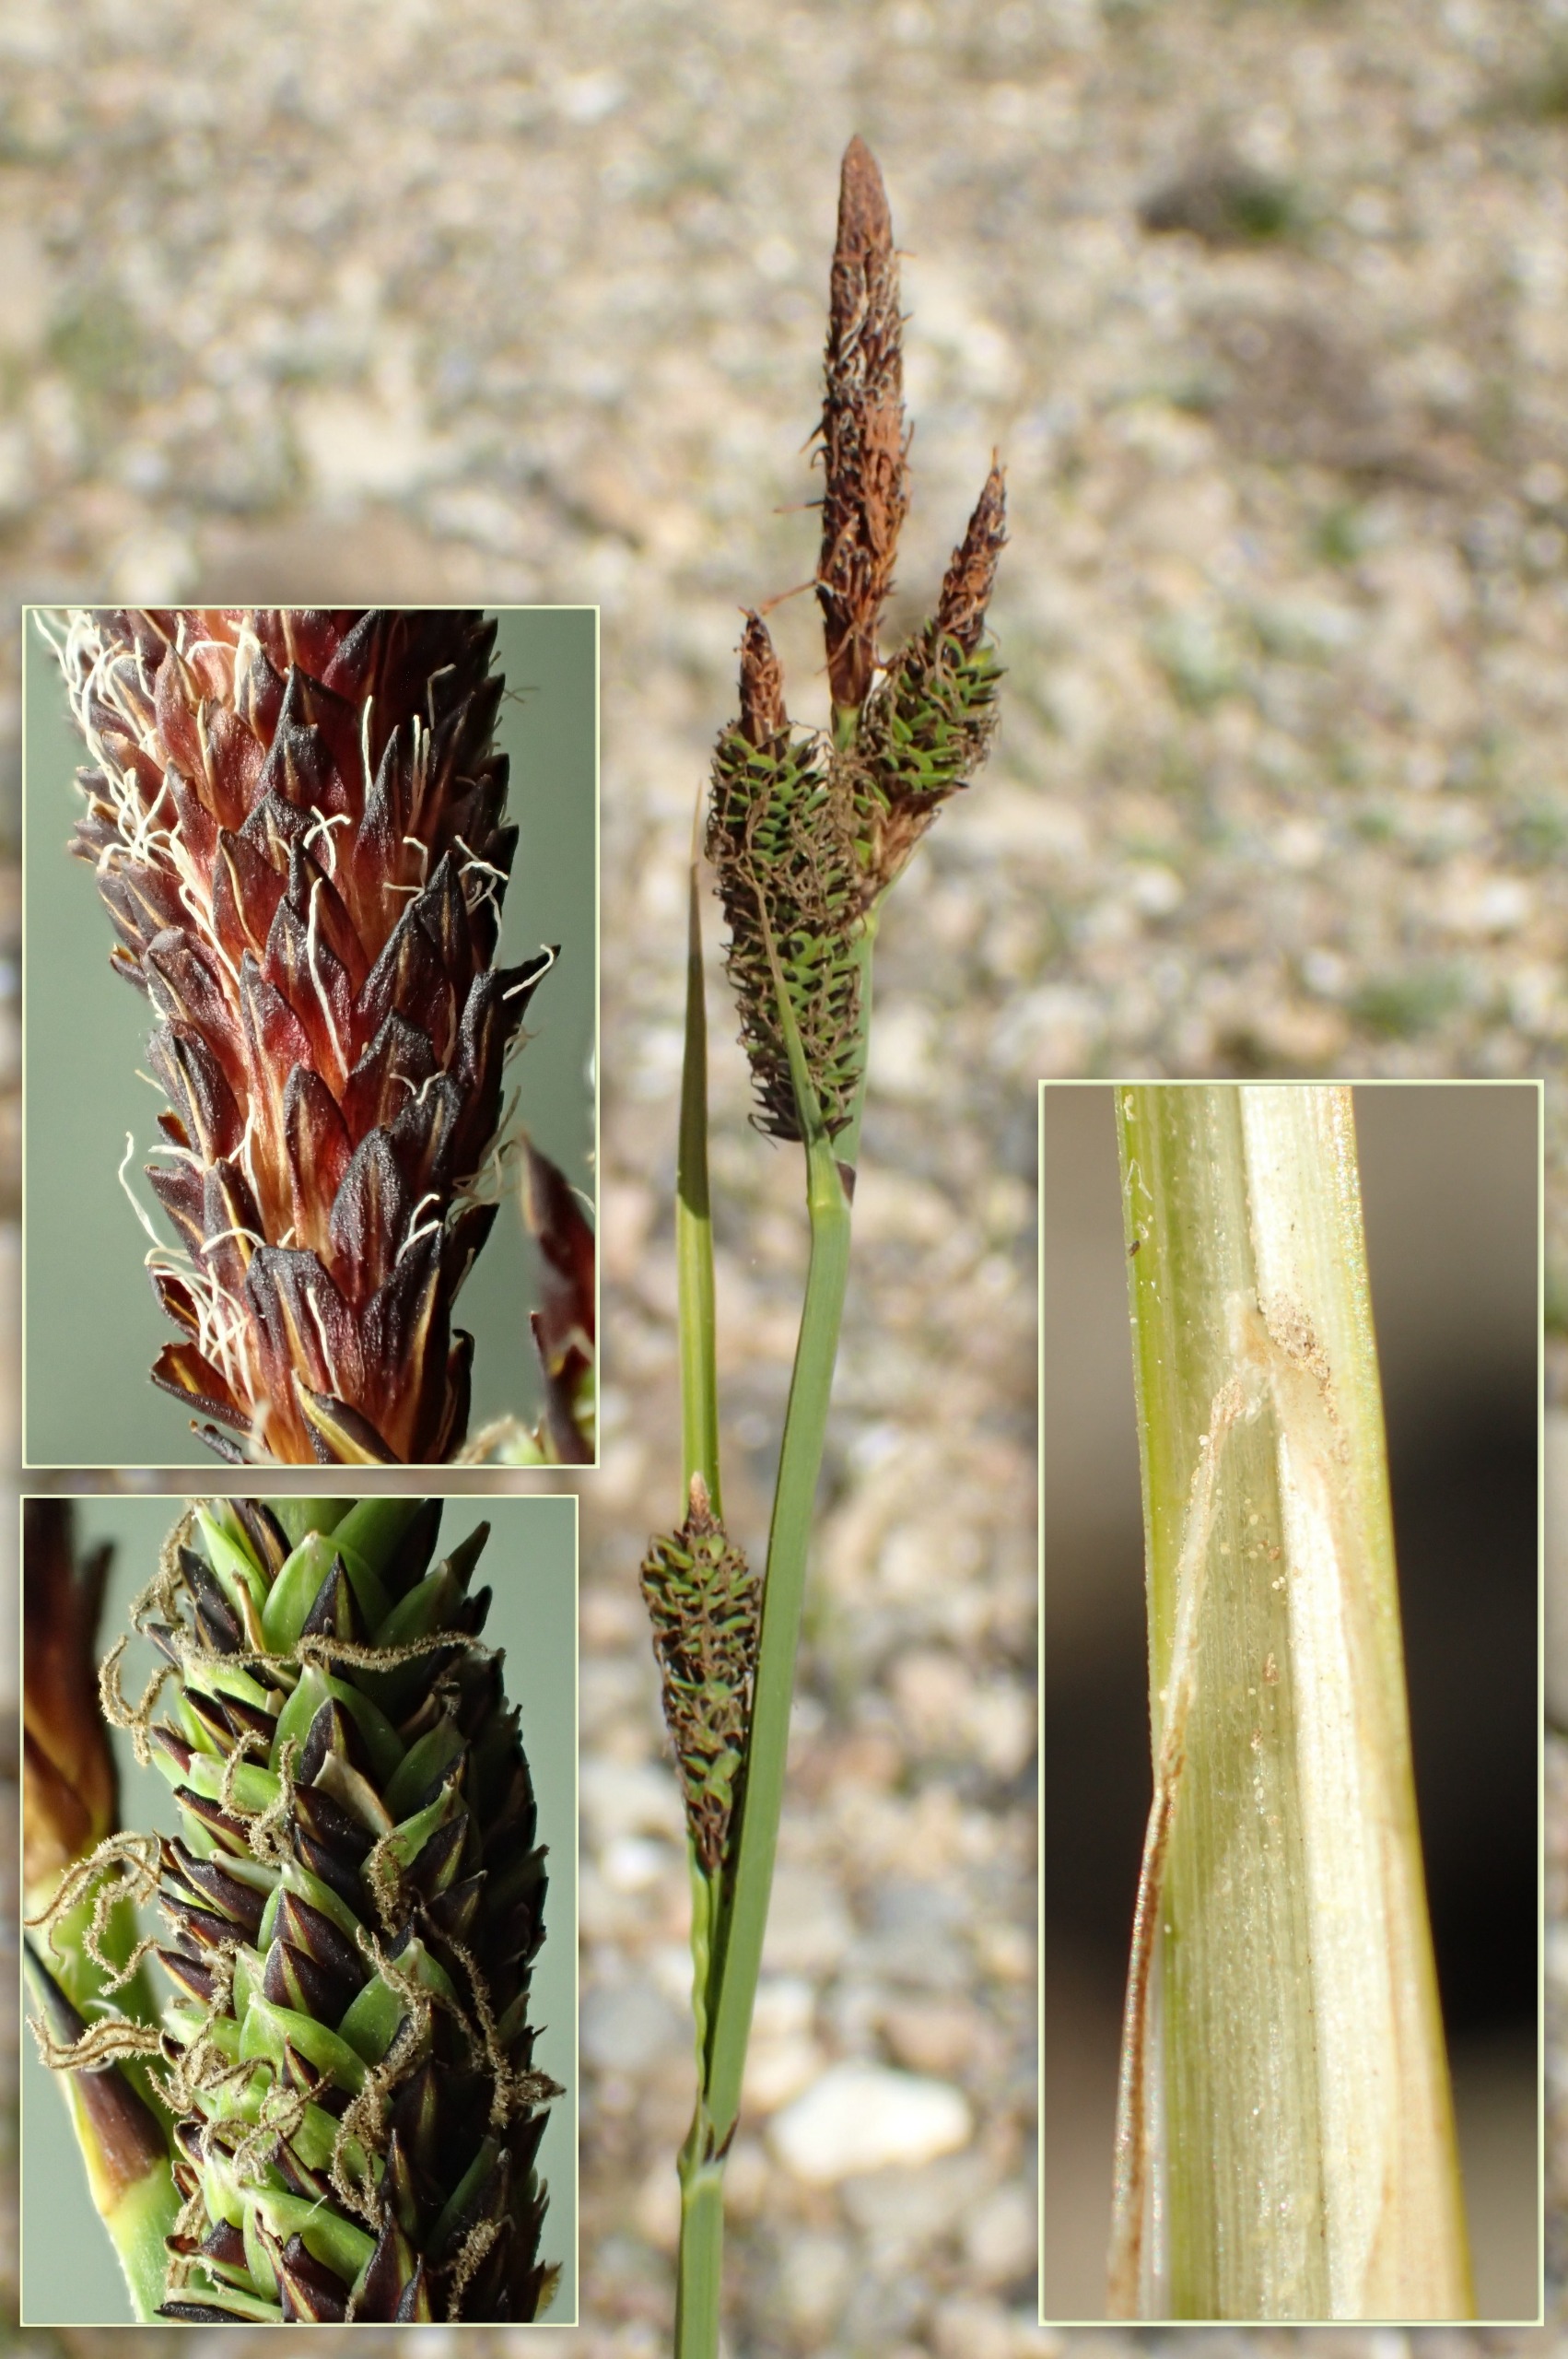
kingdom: Plantae
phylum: Tracheophyta
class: Liliopsida
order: Poales
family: Cyperaceae
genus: Carex
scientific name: Carex elata
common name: Stiv star
